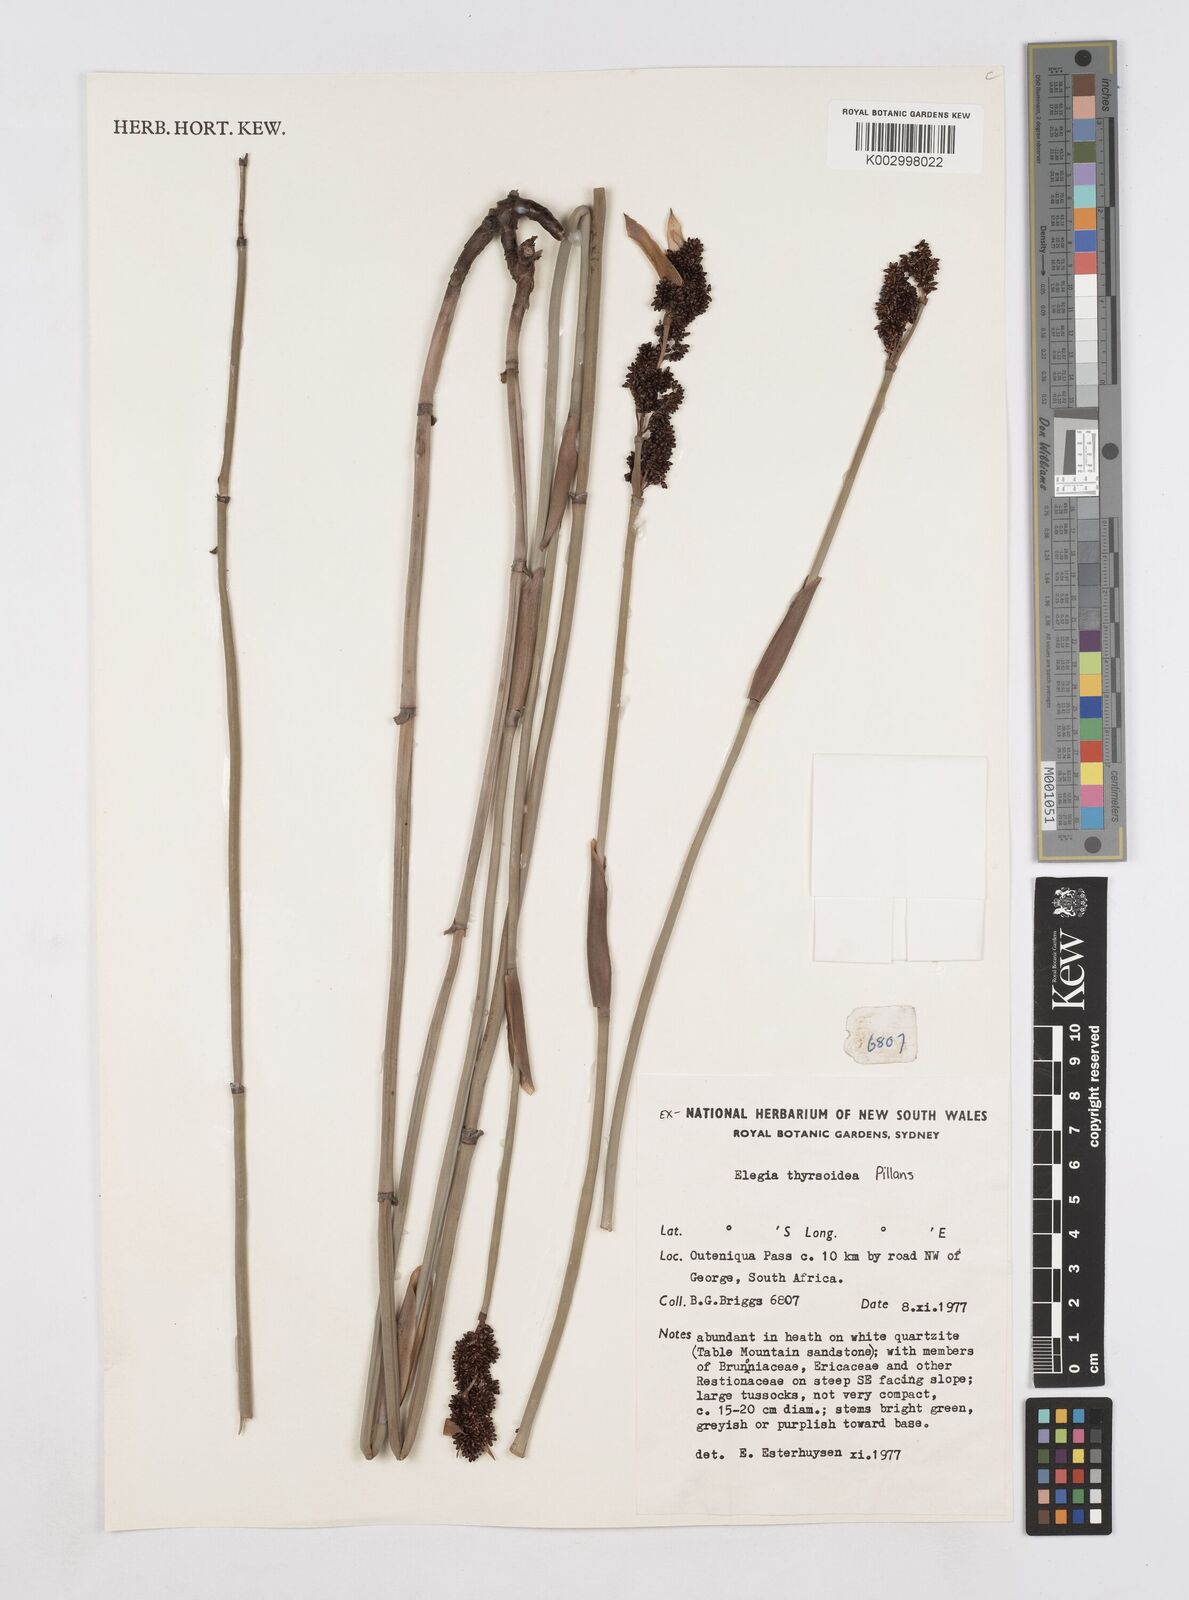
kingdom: Plantae
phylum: Tracheophyta
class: Liliopsida
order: Poales
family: Restionaceae
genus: Elegia
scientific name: Elegia thyrsoidea
